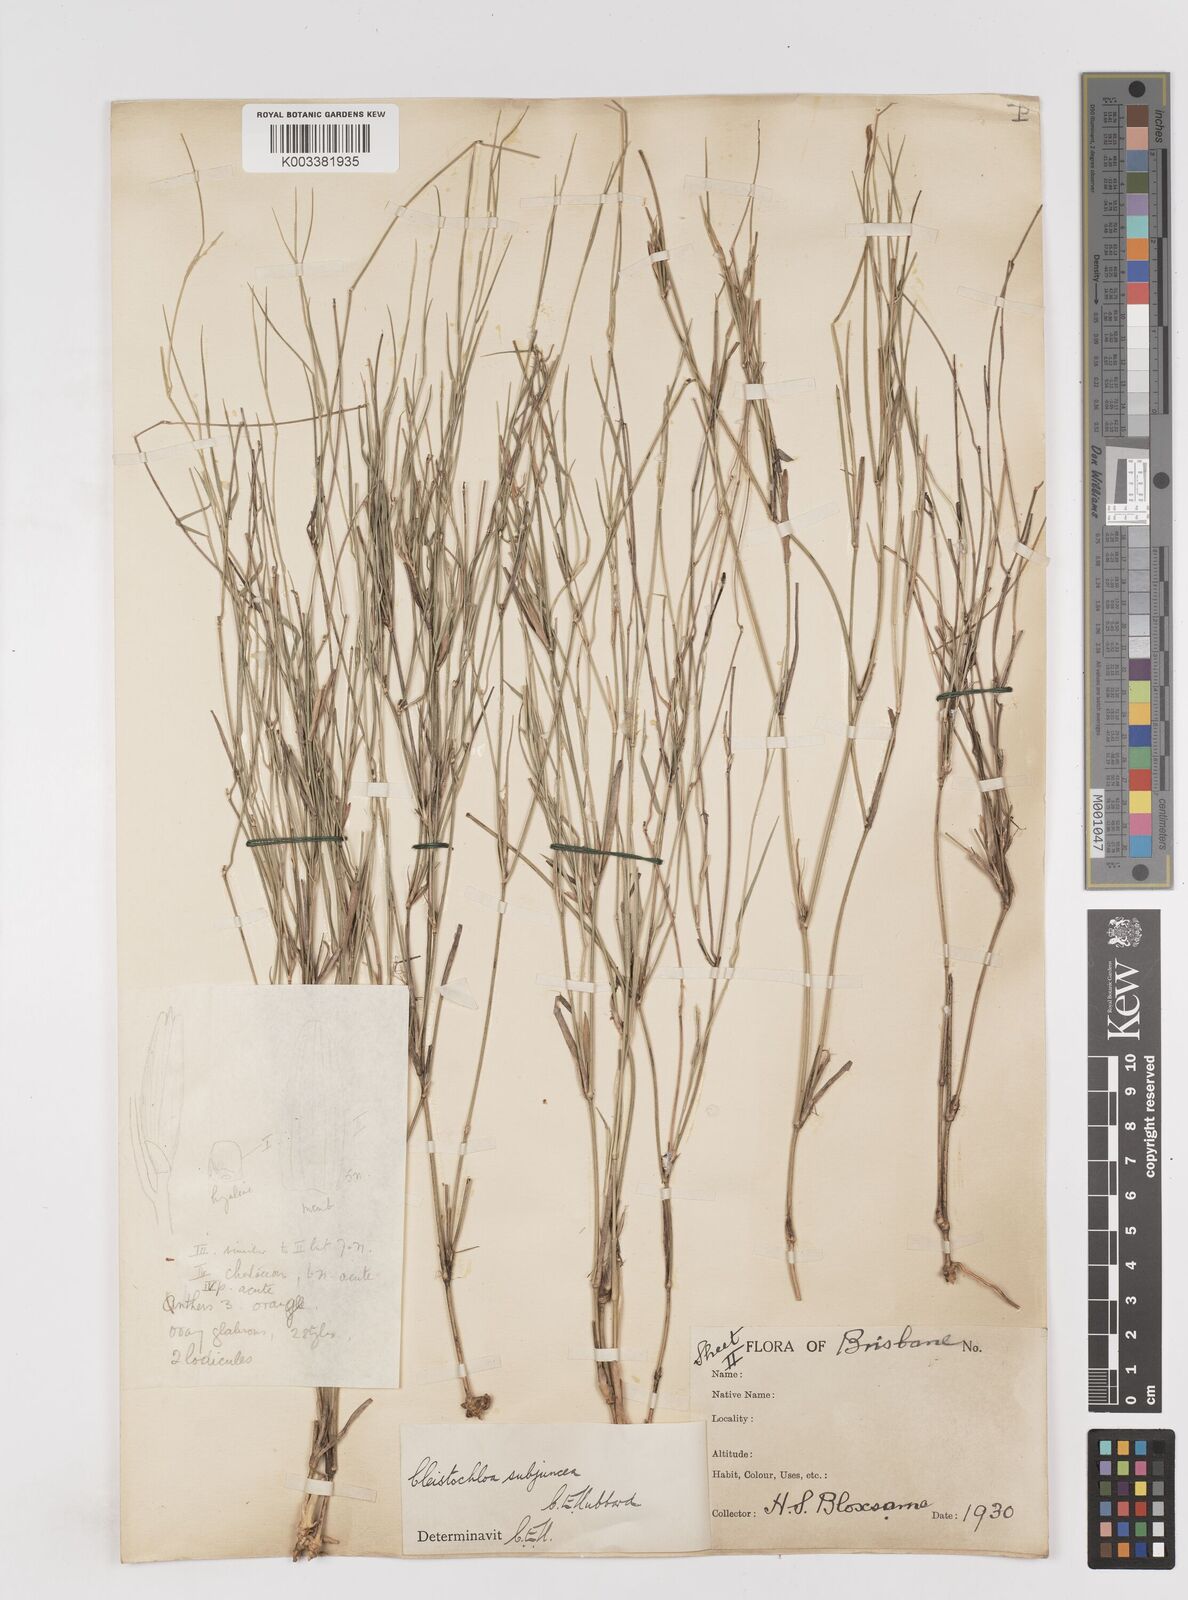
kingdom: Plantae
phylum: Tracheophyta
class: Liliopsida
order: Poales
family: Poaceae
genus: Cleistochloa
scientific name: Cleistochloa subjuncea
